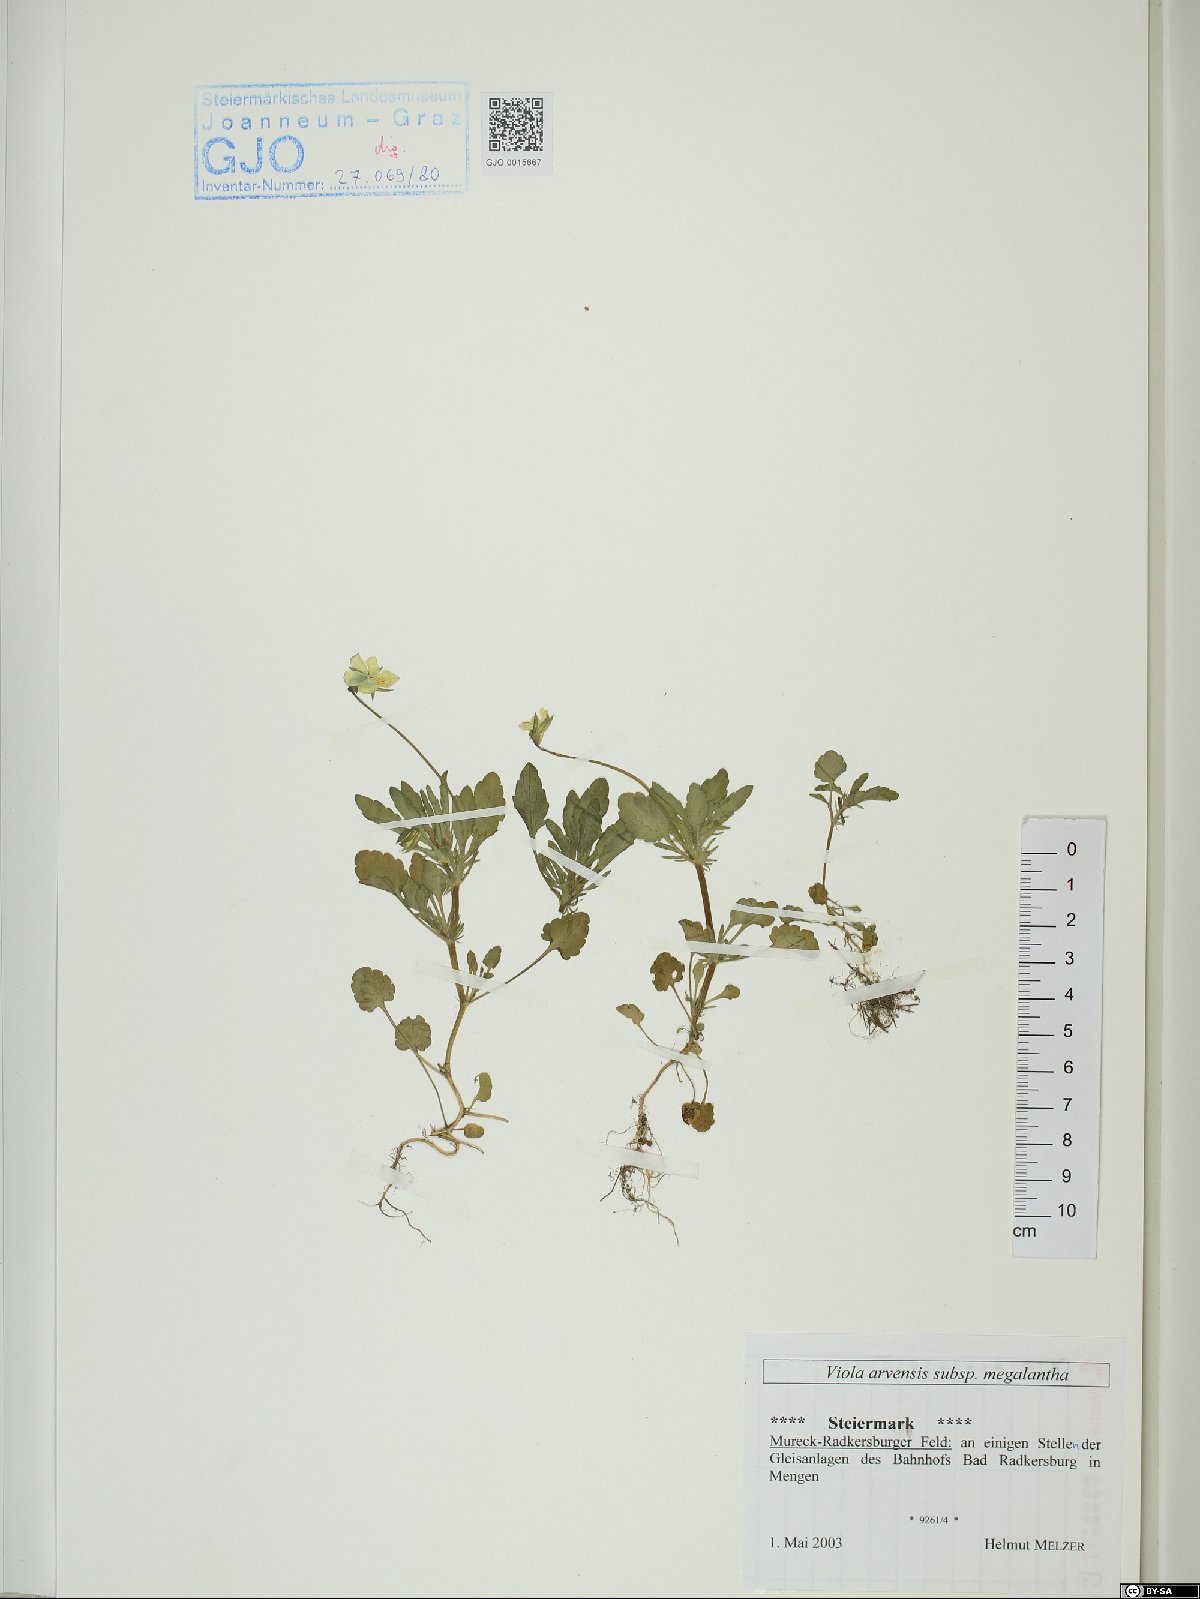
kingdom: Plantae
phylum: Tracheophyta
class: Magnoliopsida
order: Malpighiales
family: Violaceae
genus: Viola
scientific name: Viola arvensis
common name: Field pansy
